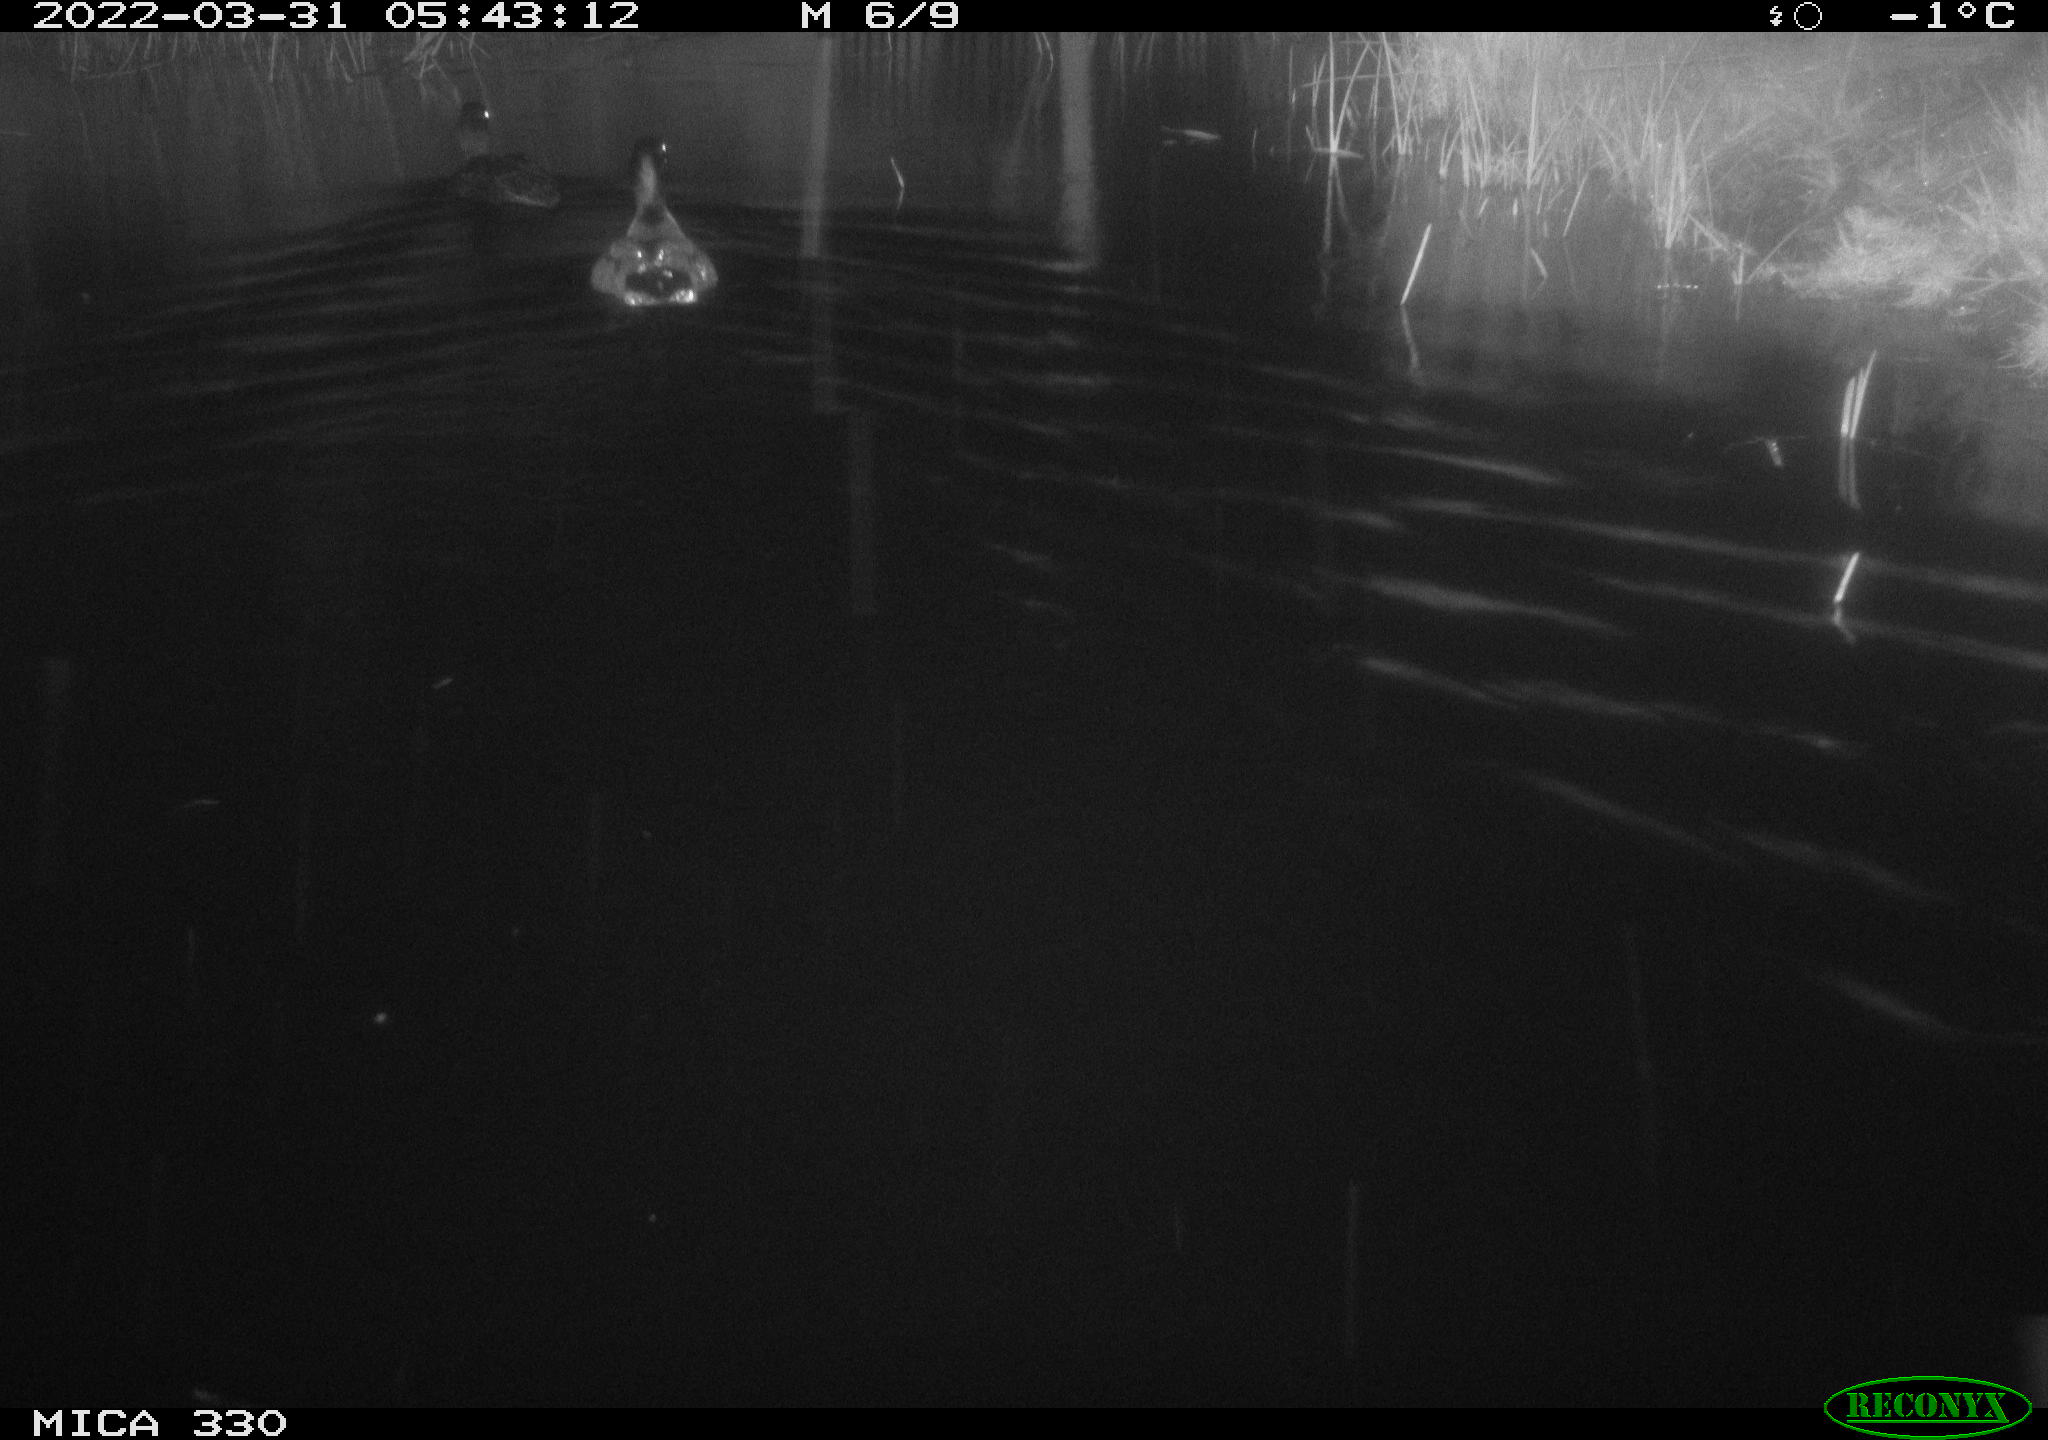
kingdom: Animalia
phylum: Chordata
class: Aves
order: Anseriformes
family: Anatidae
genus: Anas
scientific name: Anas platyrhynchos
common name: Mallard
